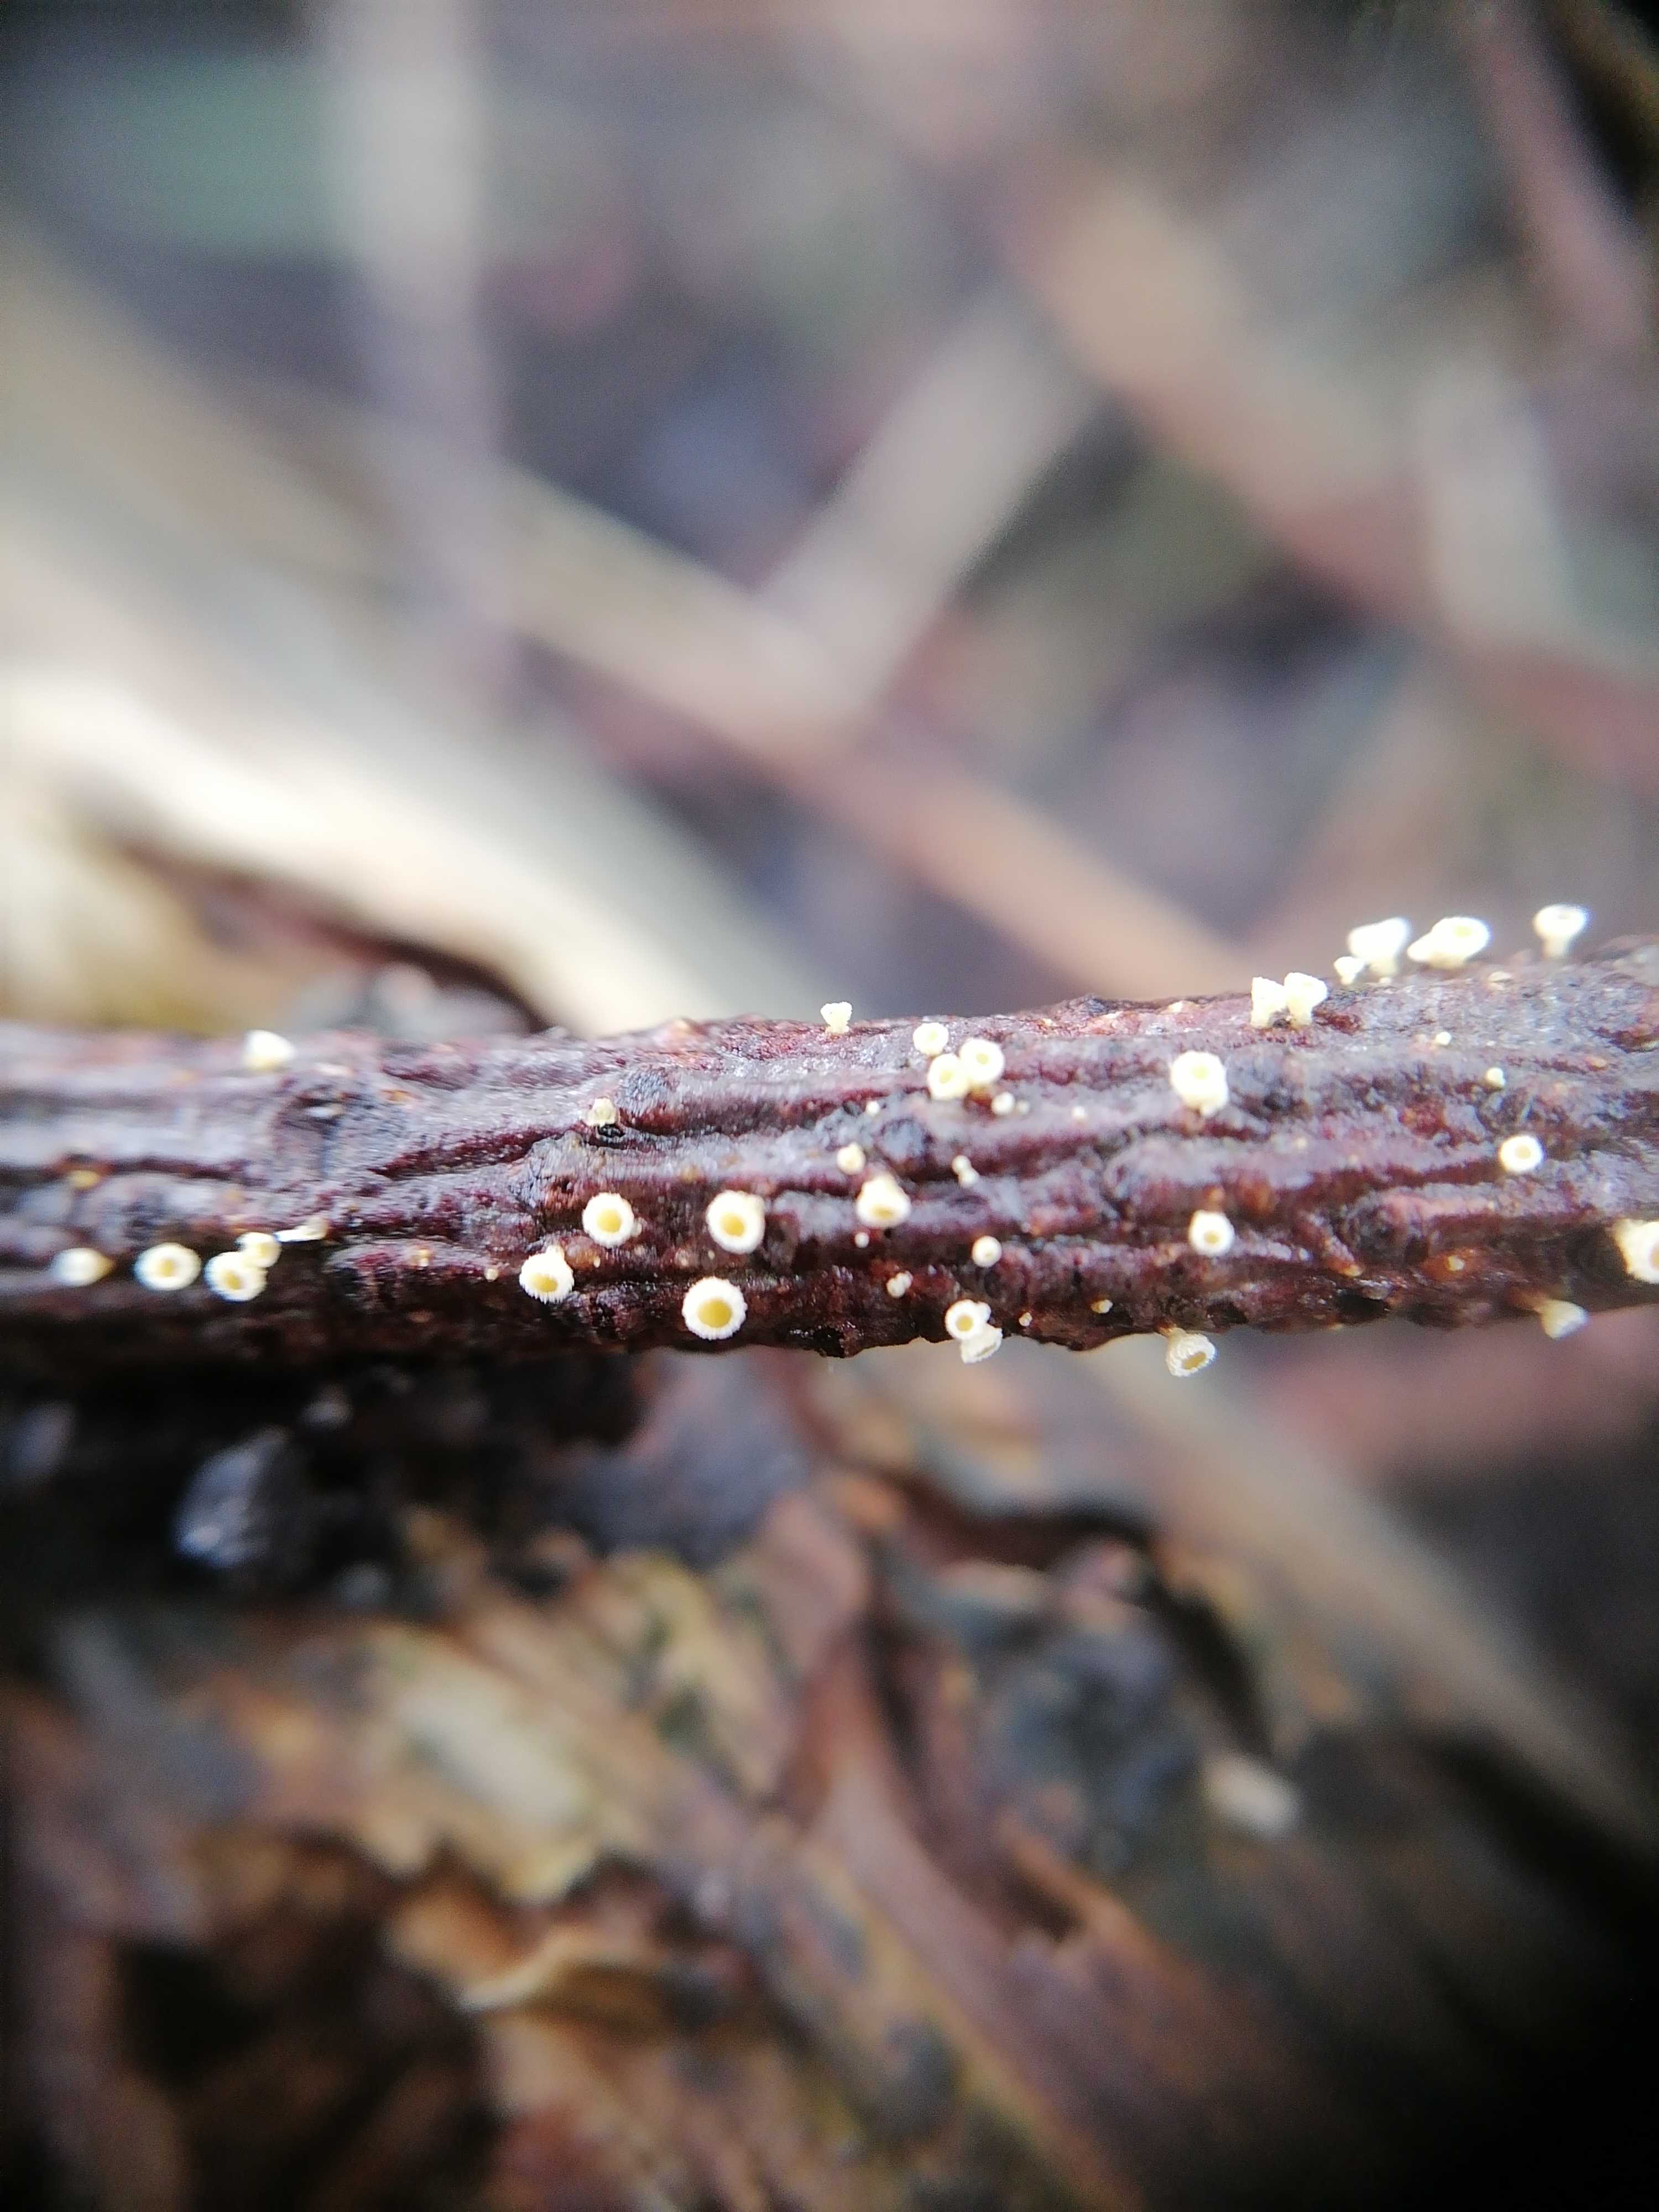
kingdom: Fungi
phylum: Ascomycota
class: Leotiomycetes
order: Helotiales
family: Lachnaceae
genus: Lachnellula
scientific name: Lachnellula
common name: frynseskive
